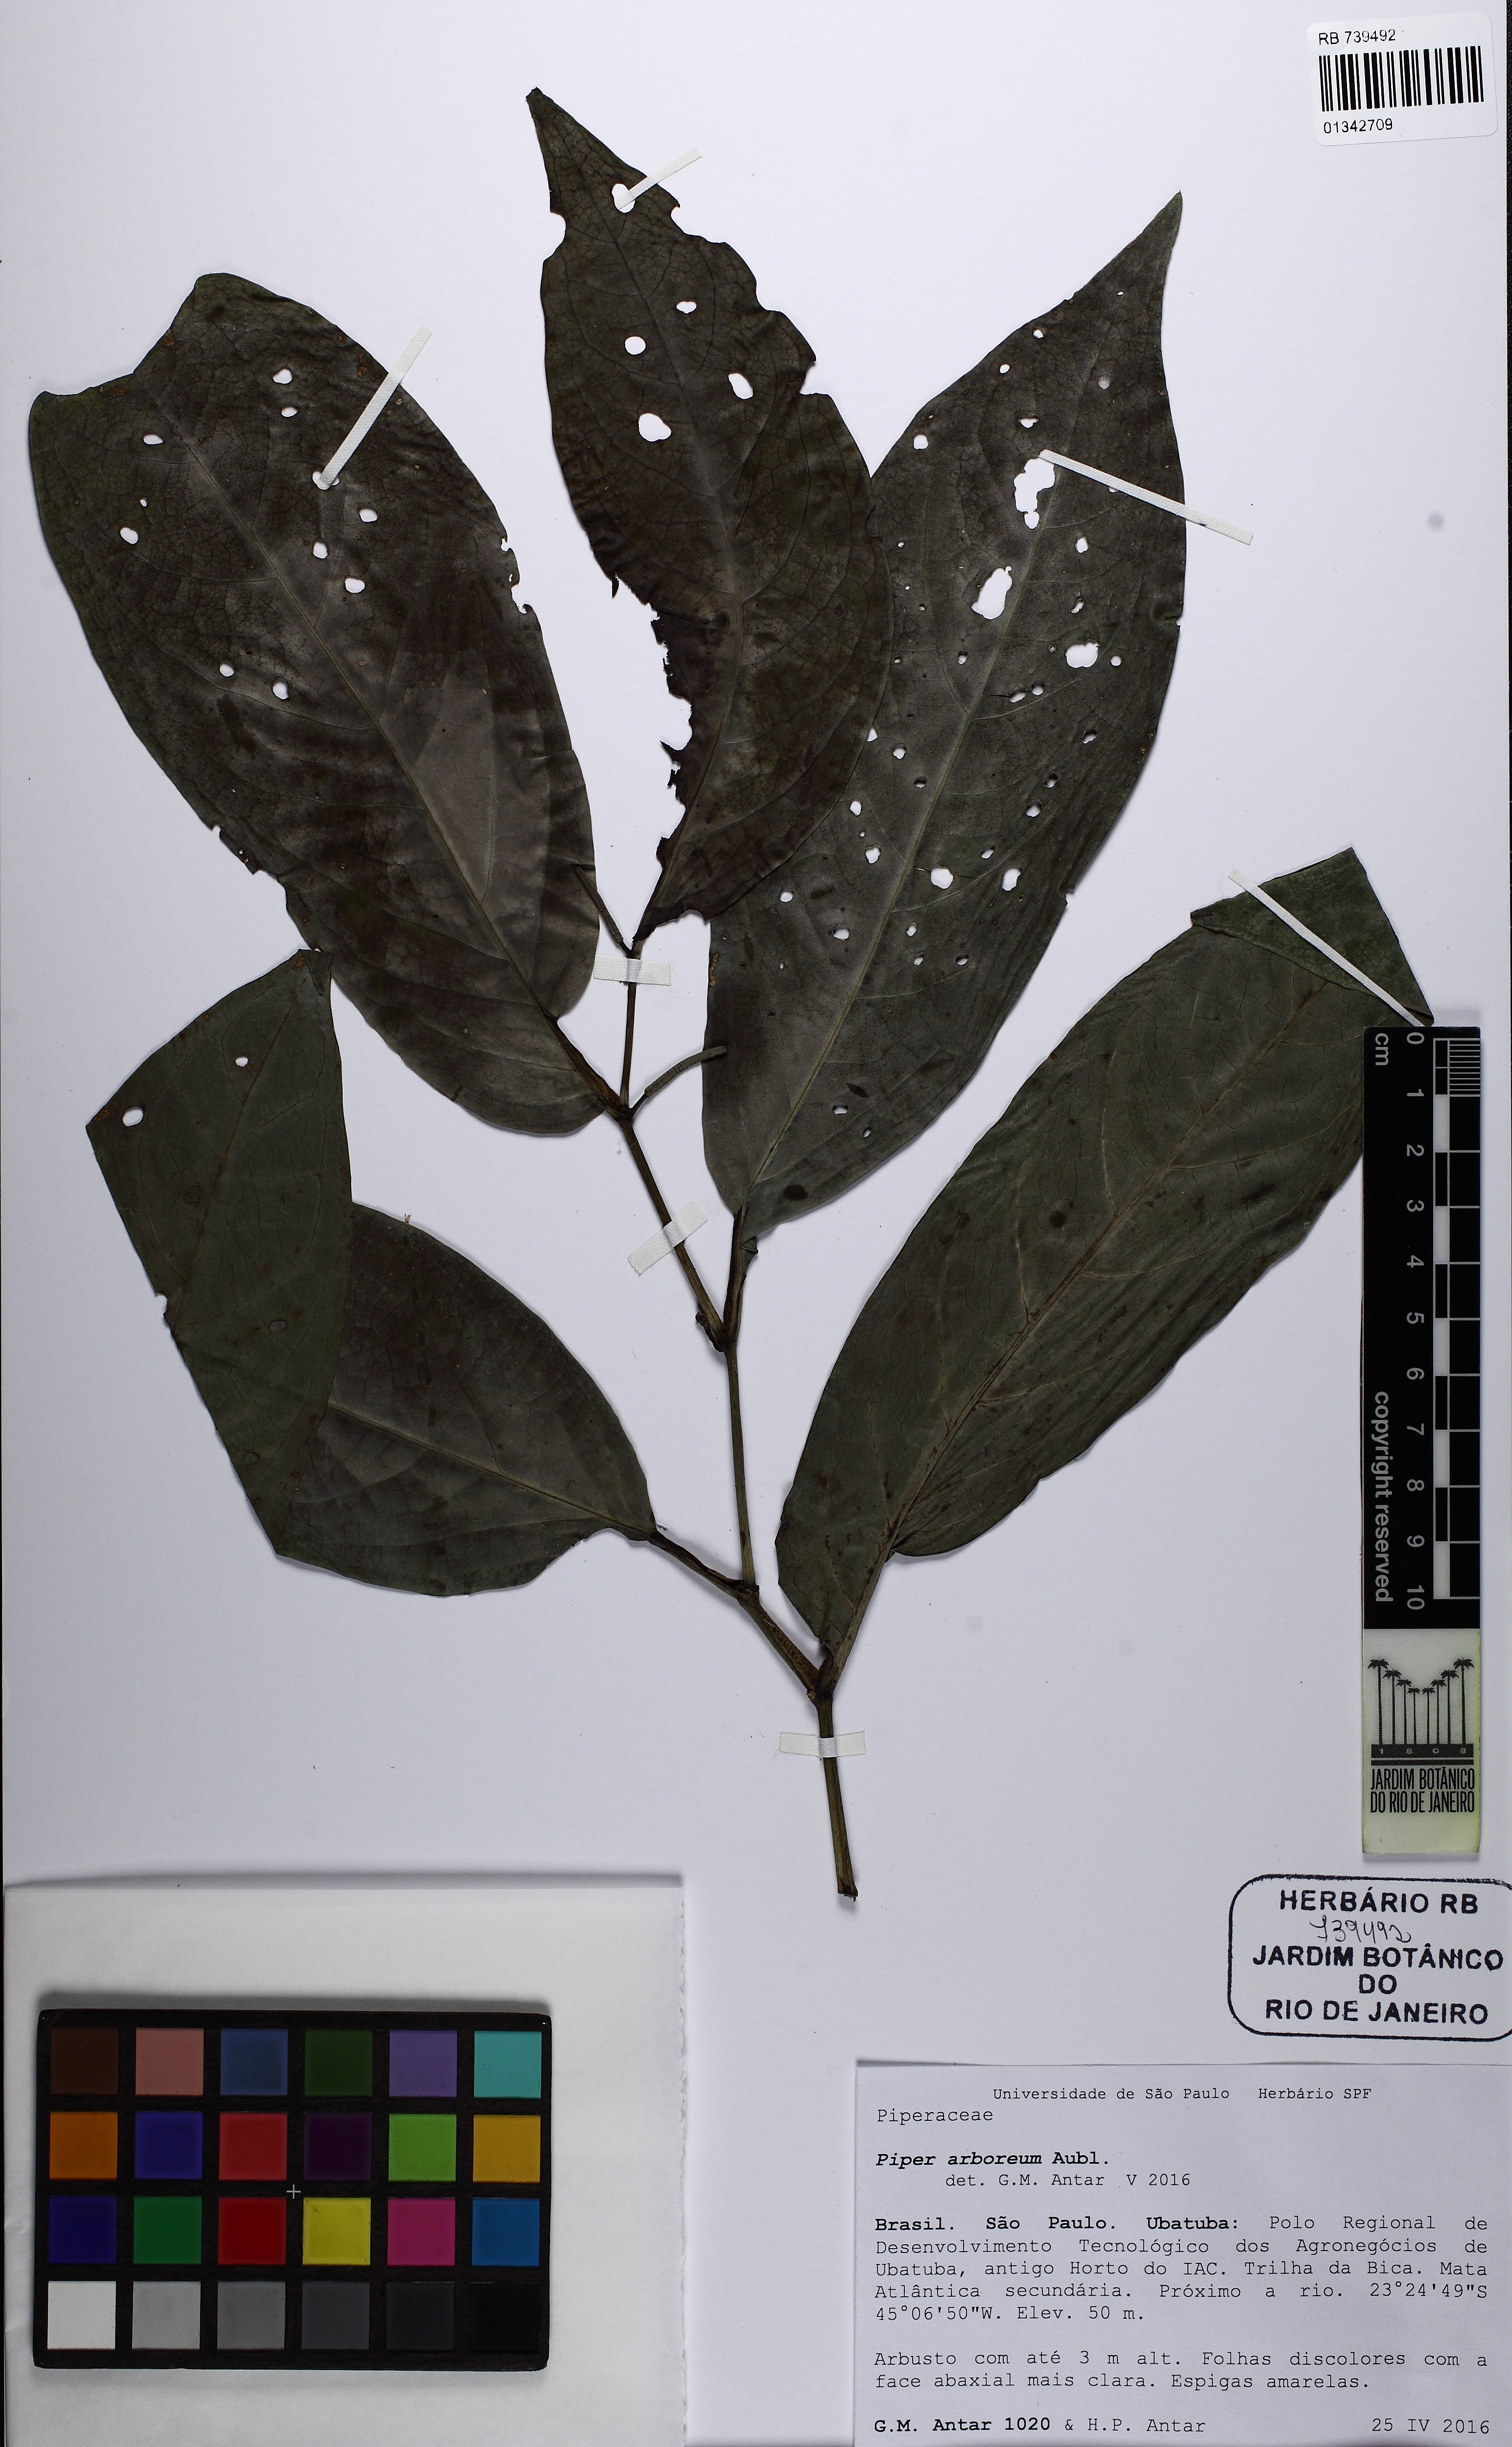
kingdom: Plantae
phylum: Tracheophyta
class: Magnoliopsida
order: Piperales
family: Piperaceae
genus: Piper
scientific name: Piper arboreum
